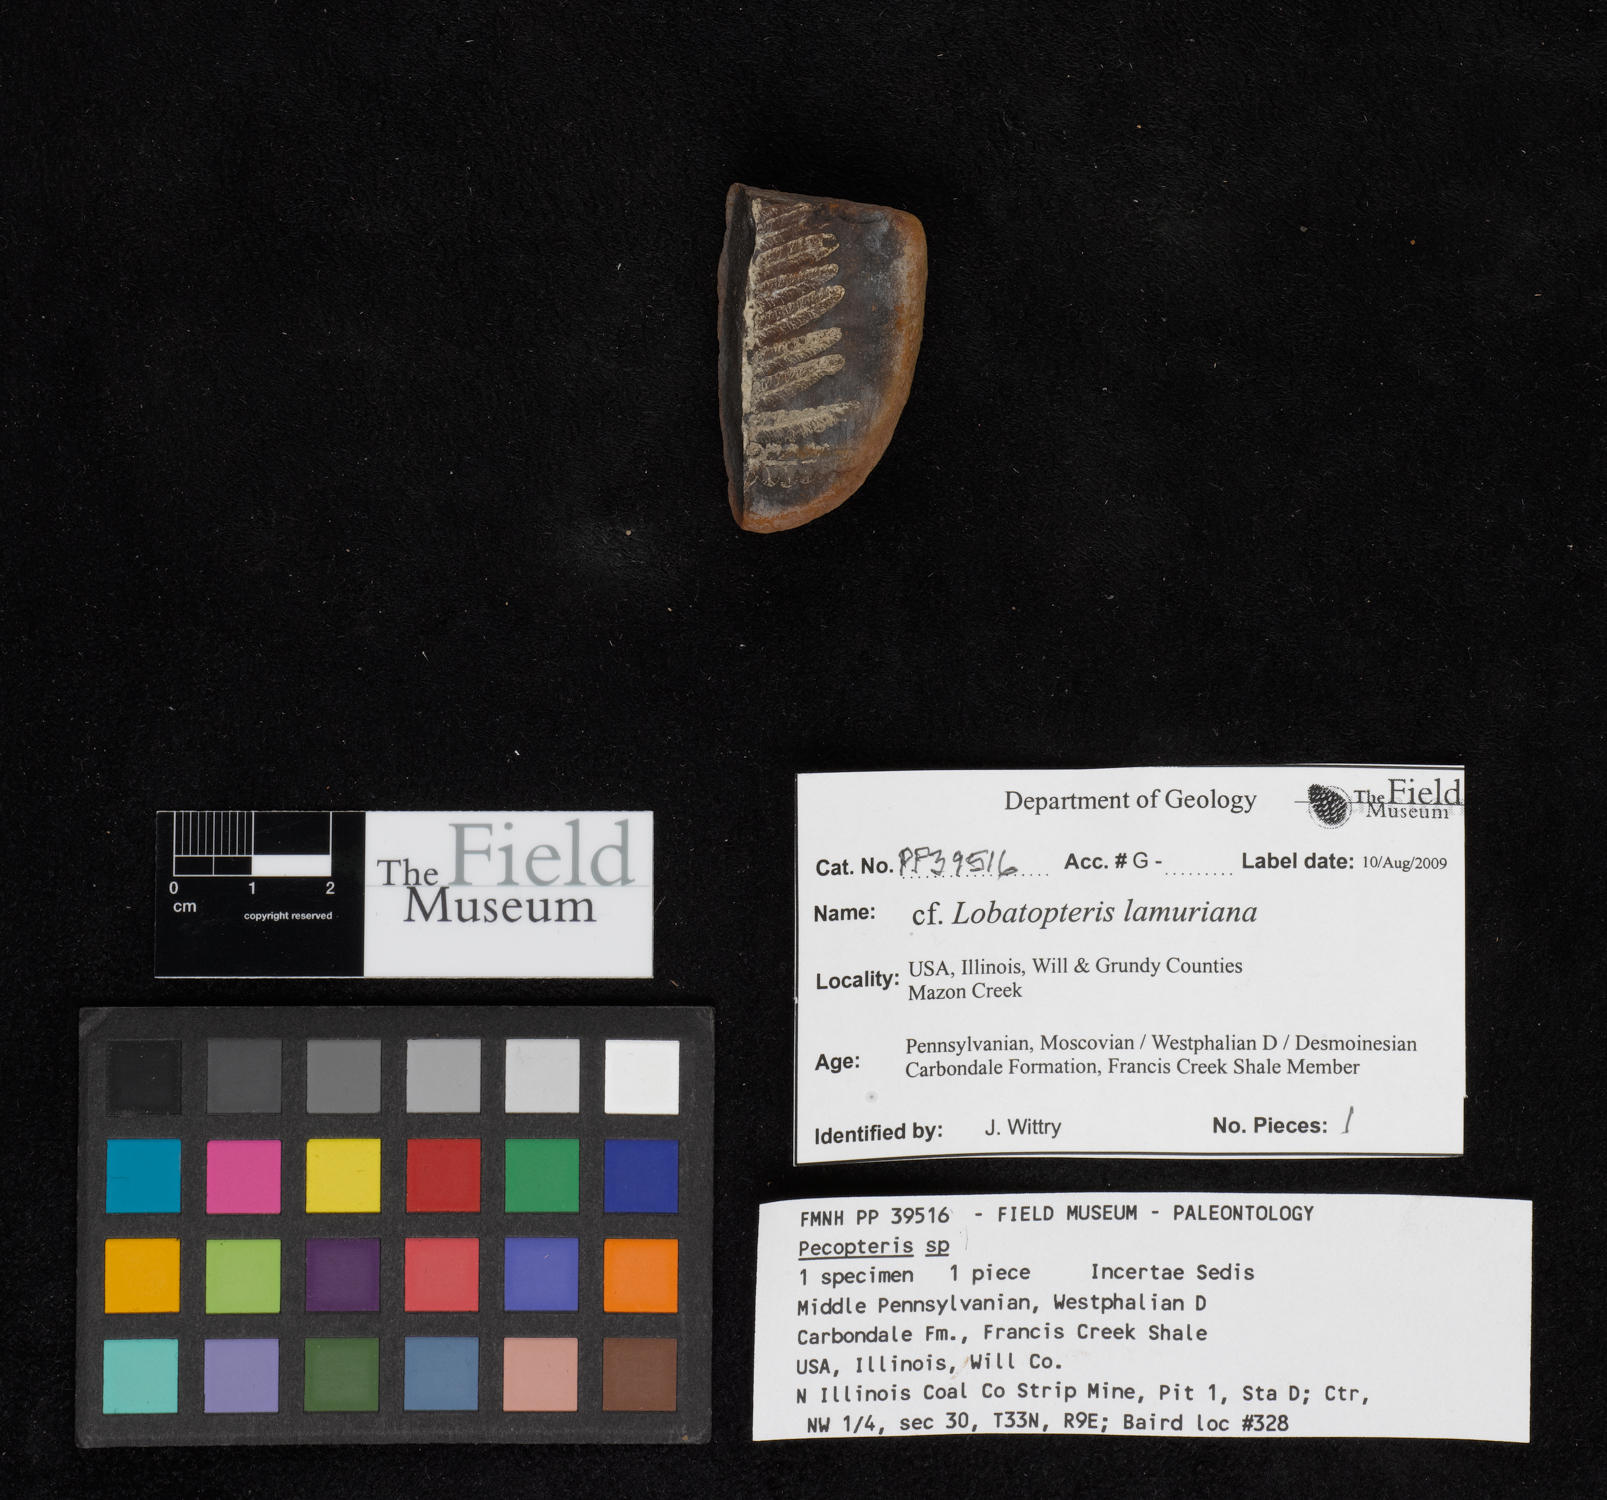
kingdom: Plantae
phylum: Tracheophyta
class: Polypodiopsida
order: Marattiales
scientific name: Marattiales
